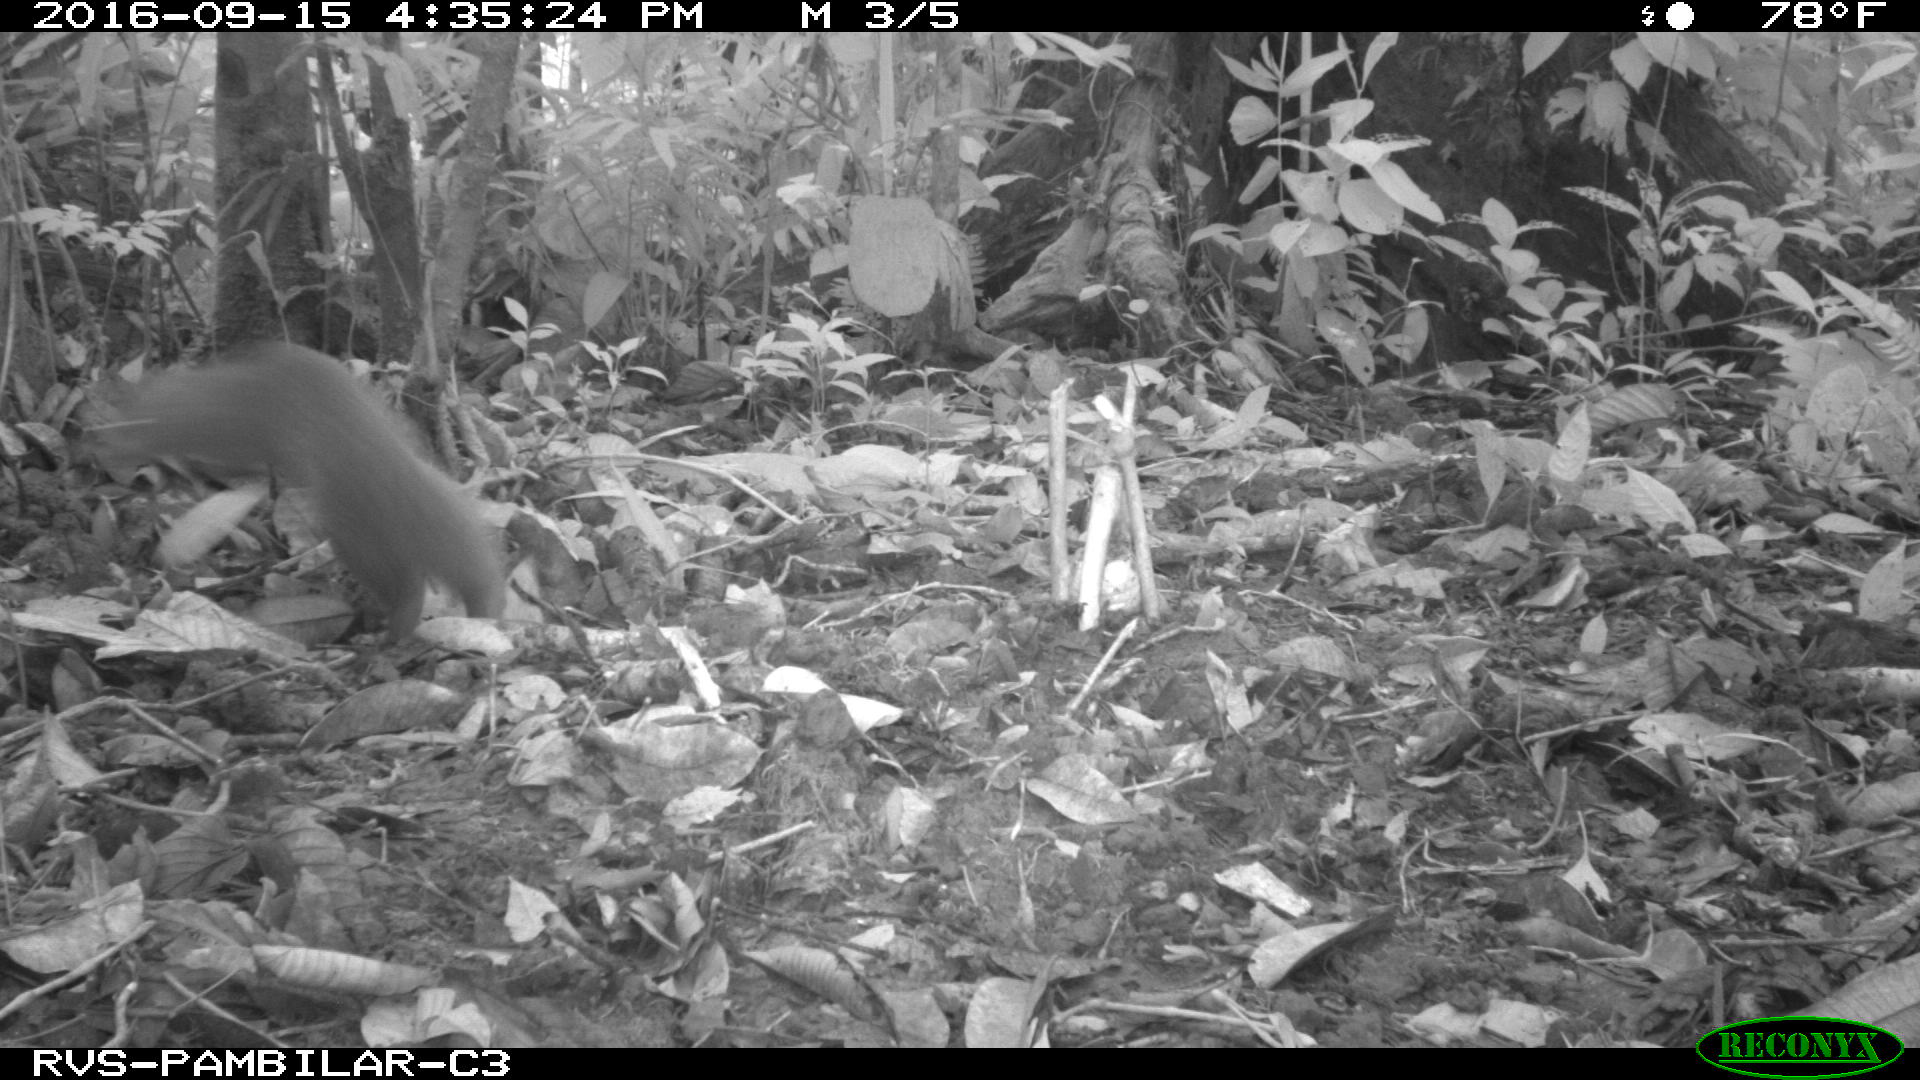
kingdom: Animalia
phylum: Chordata
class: Mammalia
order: Rodentia
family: Dasyproctidae
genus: Dasyprocta
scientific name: Dasyprocta punctata
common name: Central american agouti
